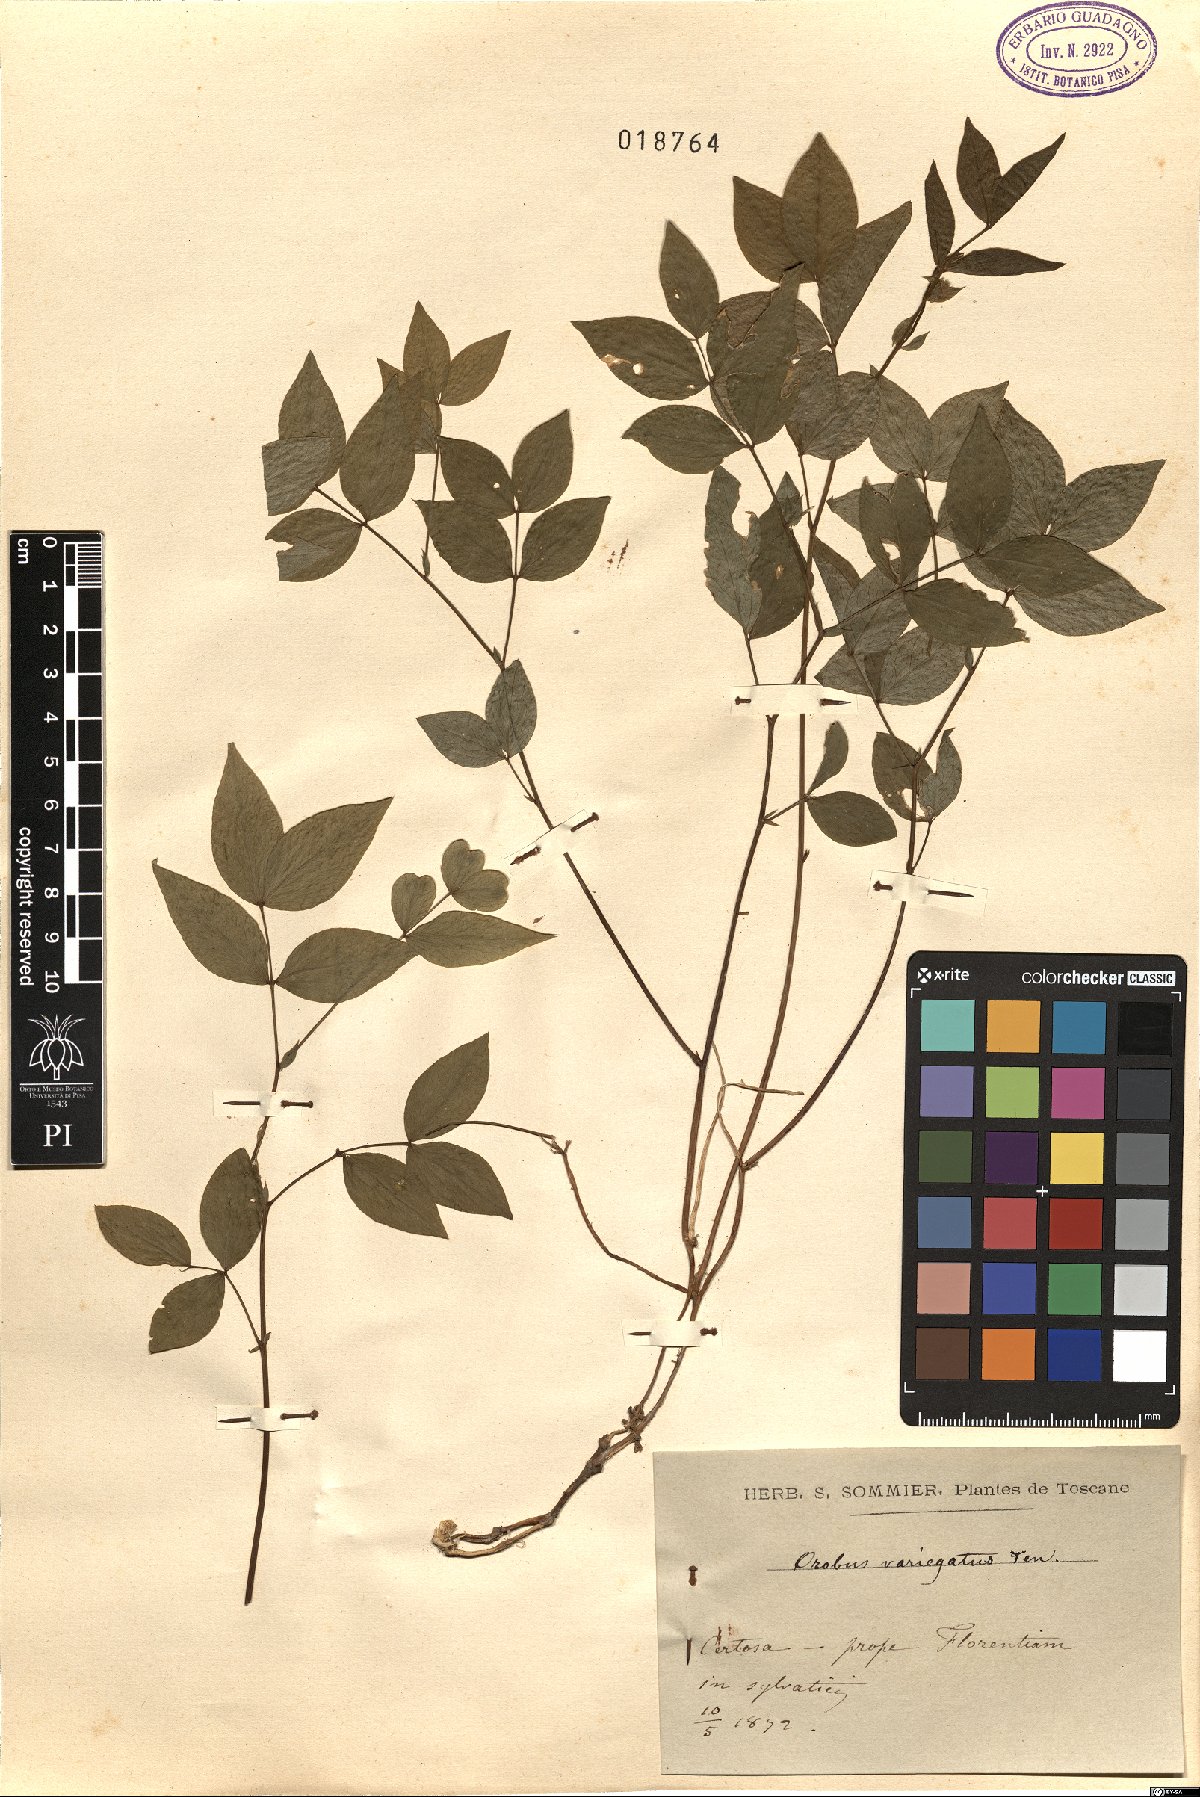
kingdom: Plantae
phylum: Tracheophyta
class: Magnoliopsida
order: Fabales
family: Fabaceae
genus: Lathyrus
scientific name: Lathyrus venetus
